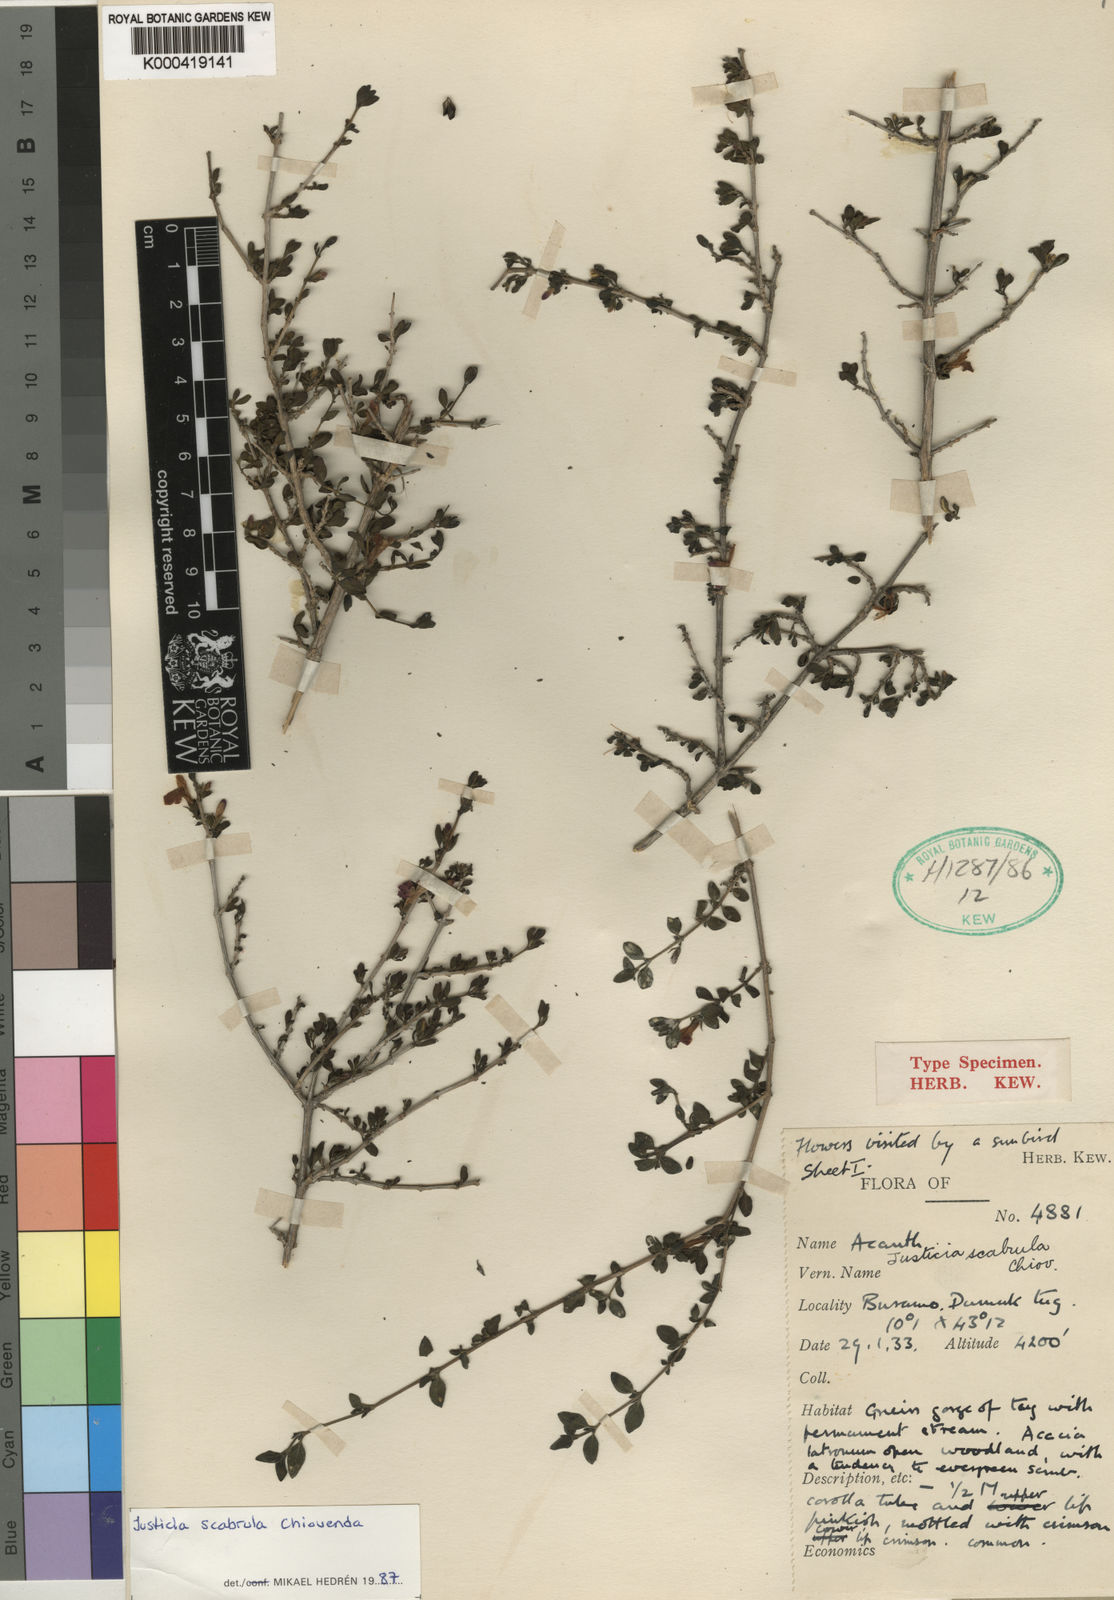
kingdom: Plantae
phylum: Tracheophyta
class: Magnoliopsida
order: Lamiales
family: Acanthaceae
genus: Justicia
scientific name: Justicia
